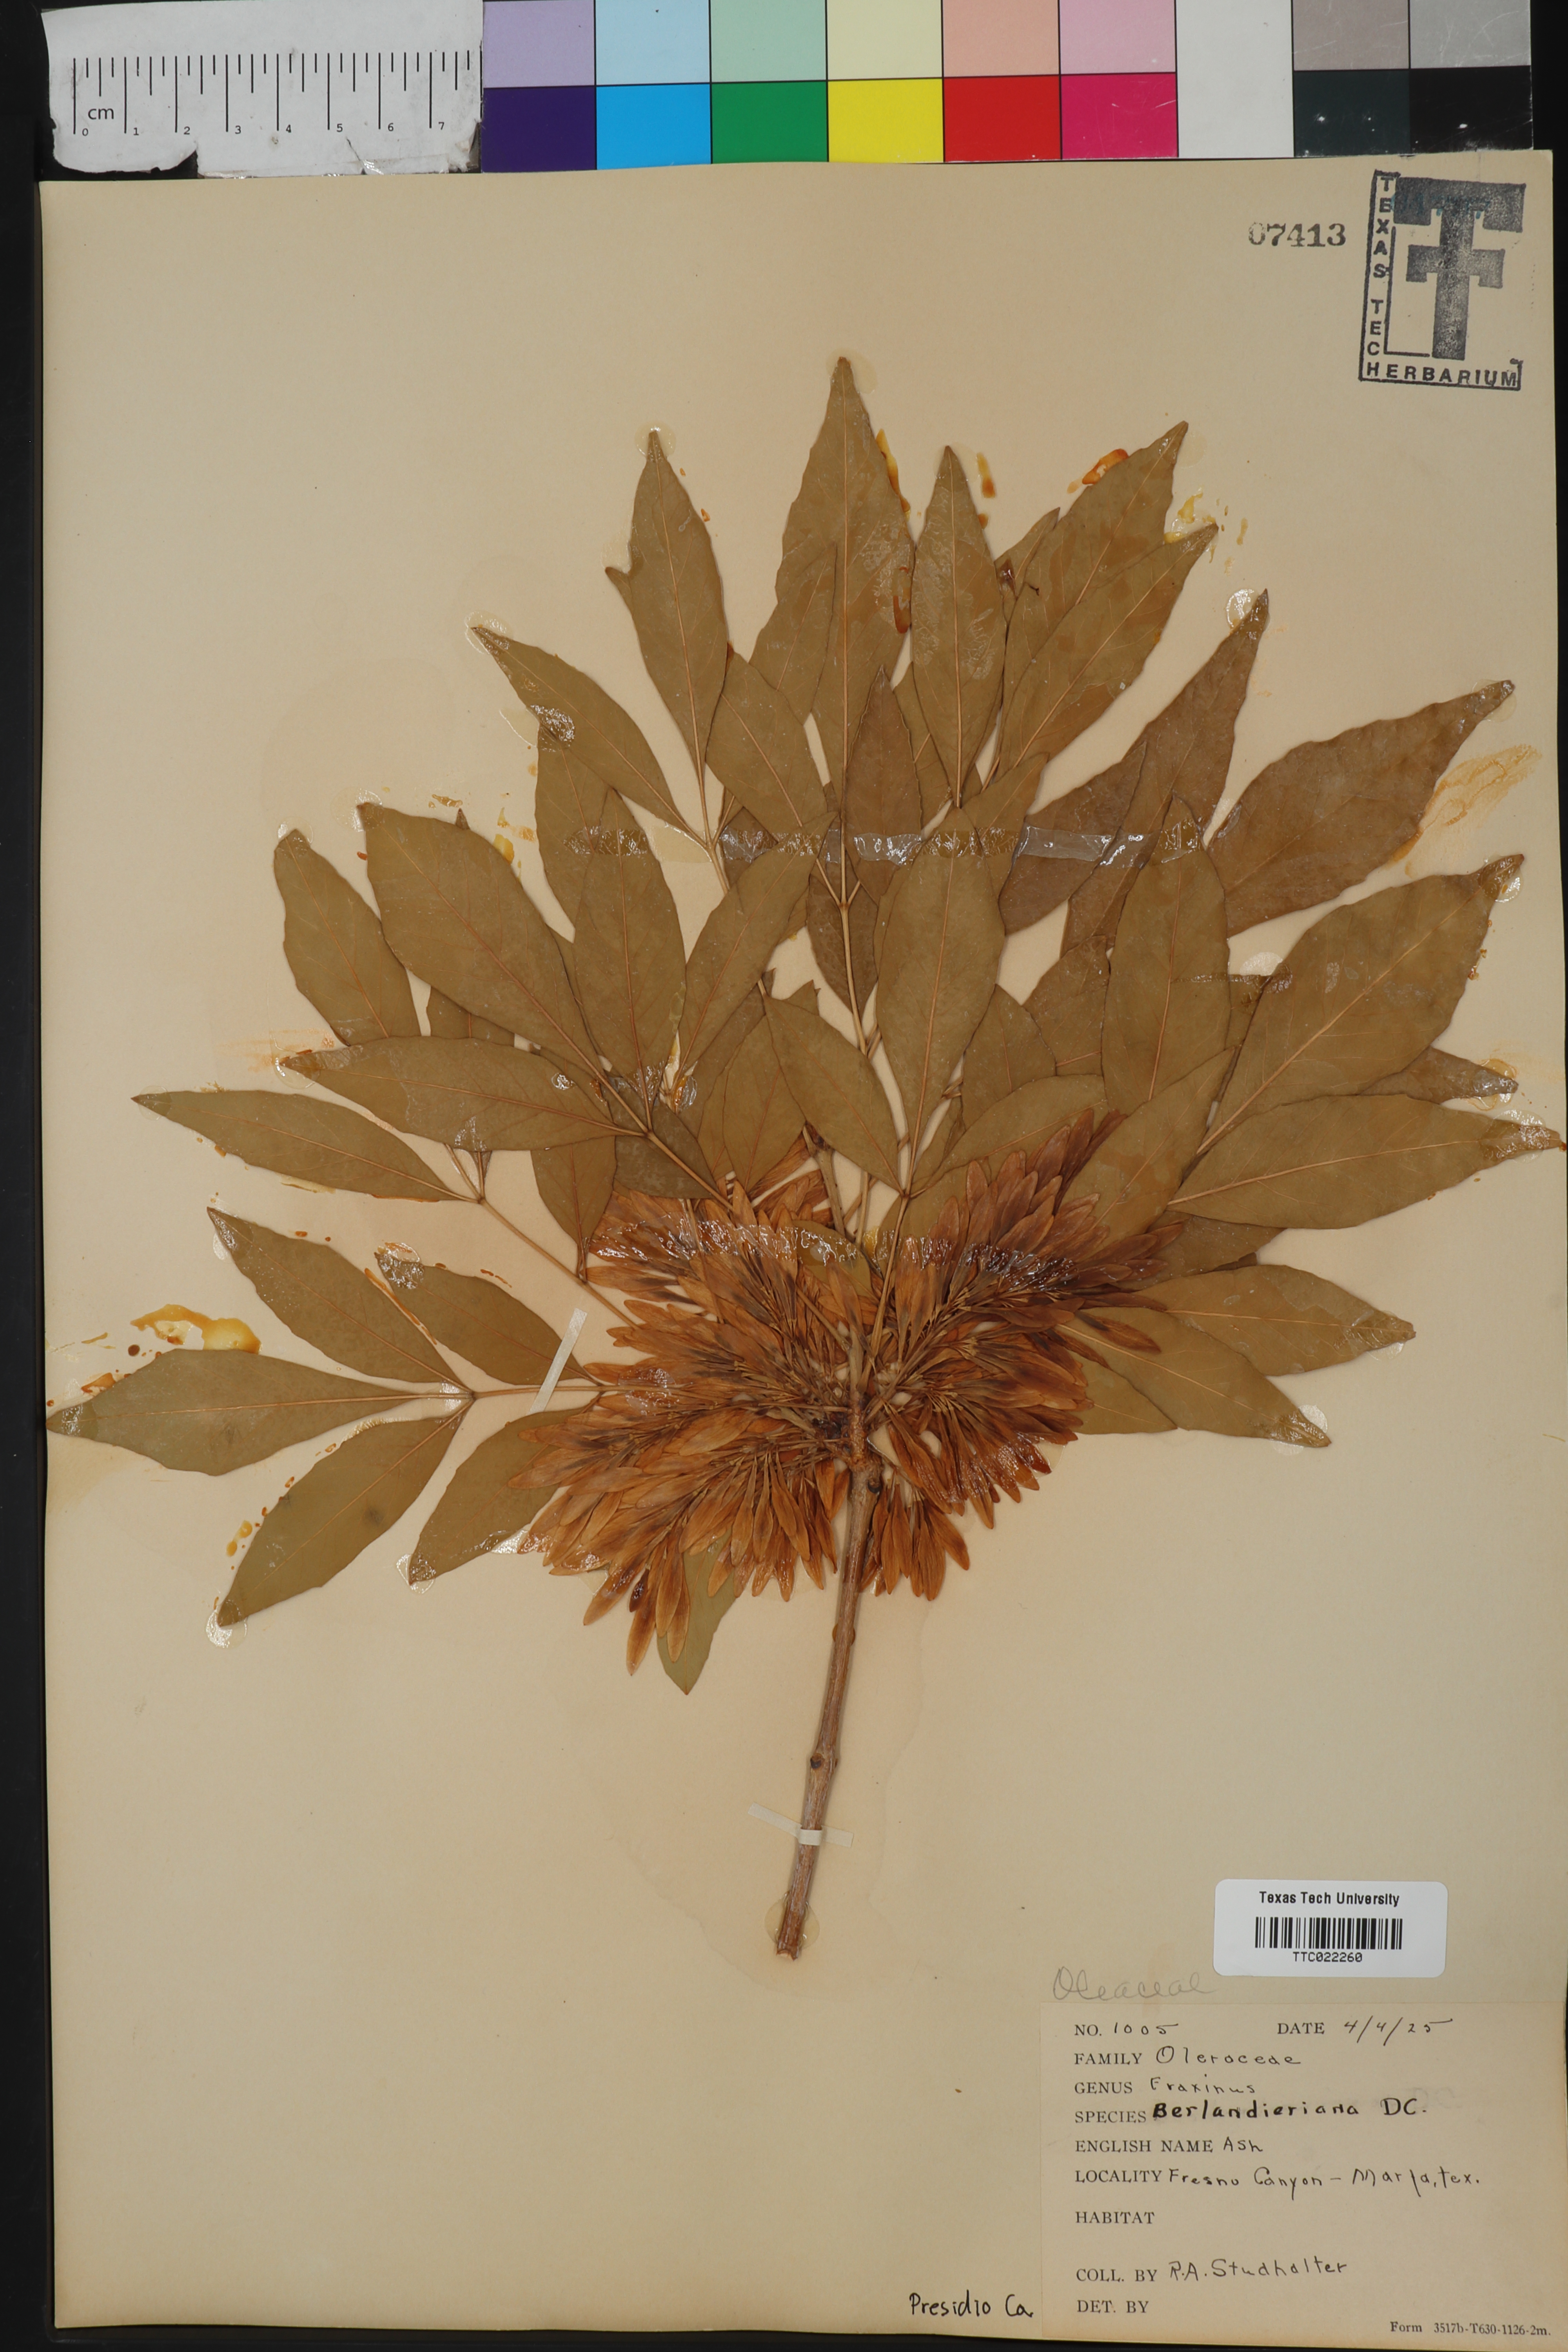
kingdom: Plantae
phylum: Tracheophyta
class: Magnoliopsida
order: Lamiales
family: Oleaceae
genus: Fraxinus
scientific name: Fraxinus berlandieriana
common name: Berlandier ash
